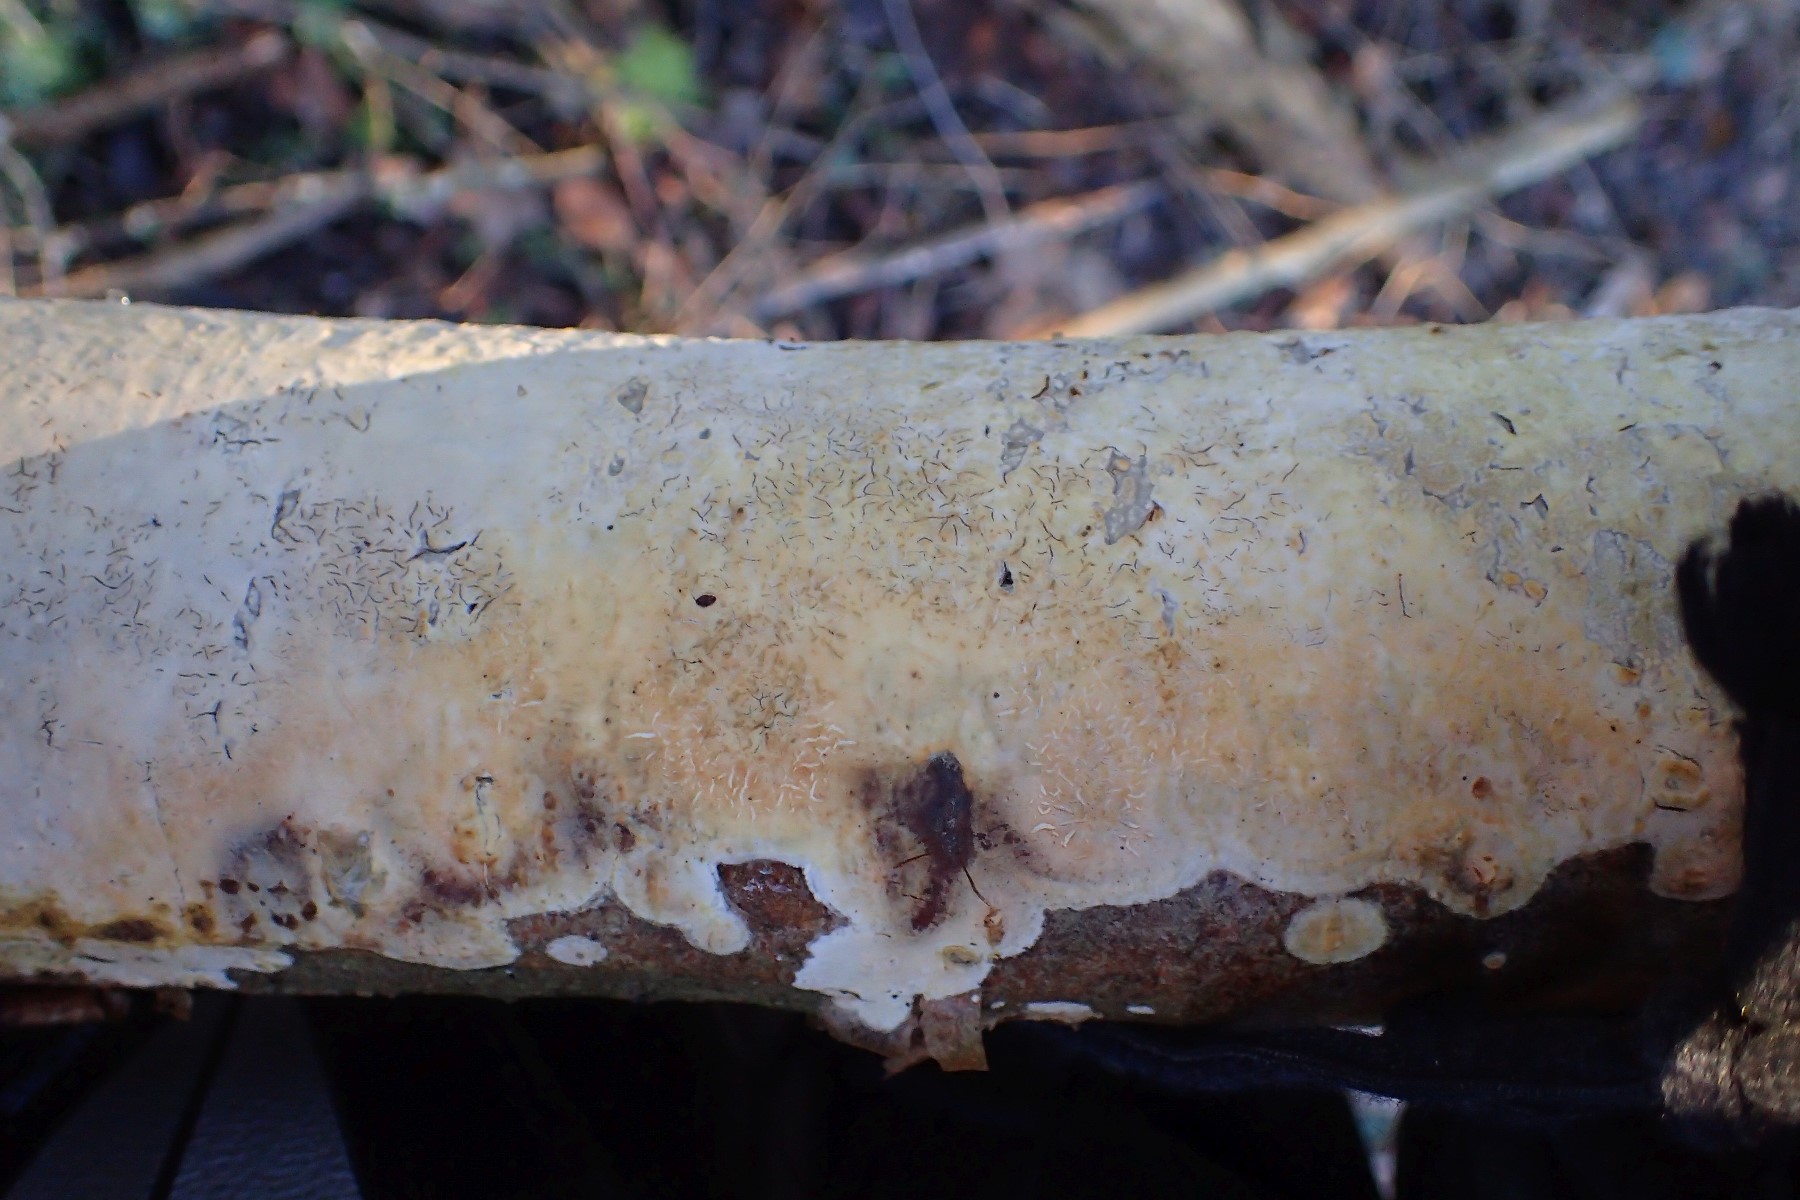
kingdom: Fungi
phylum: Basidiomycota
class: Agaricomycetes
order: Agaricales
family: Radulomycetaceae
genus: Radulomyces
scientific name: Radulomyces confluens
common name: glat naftalinskind
